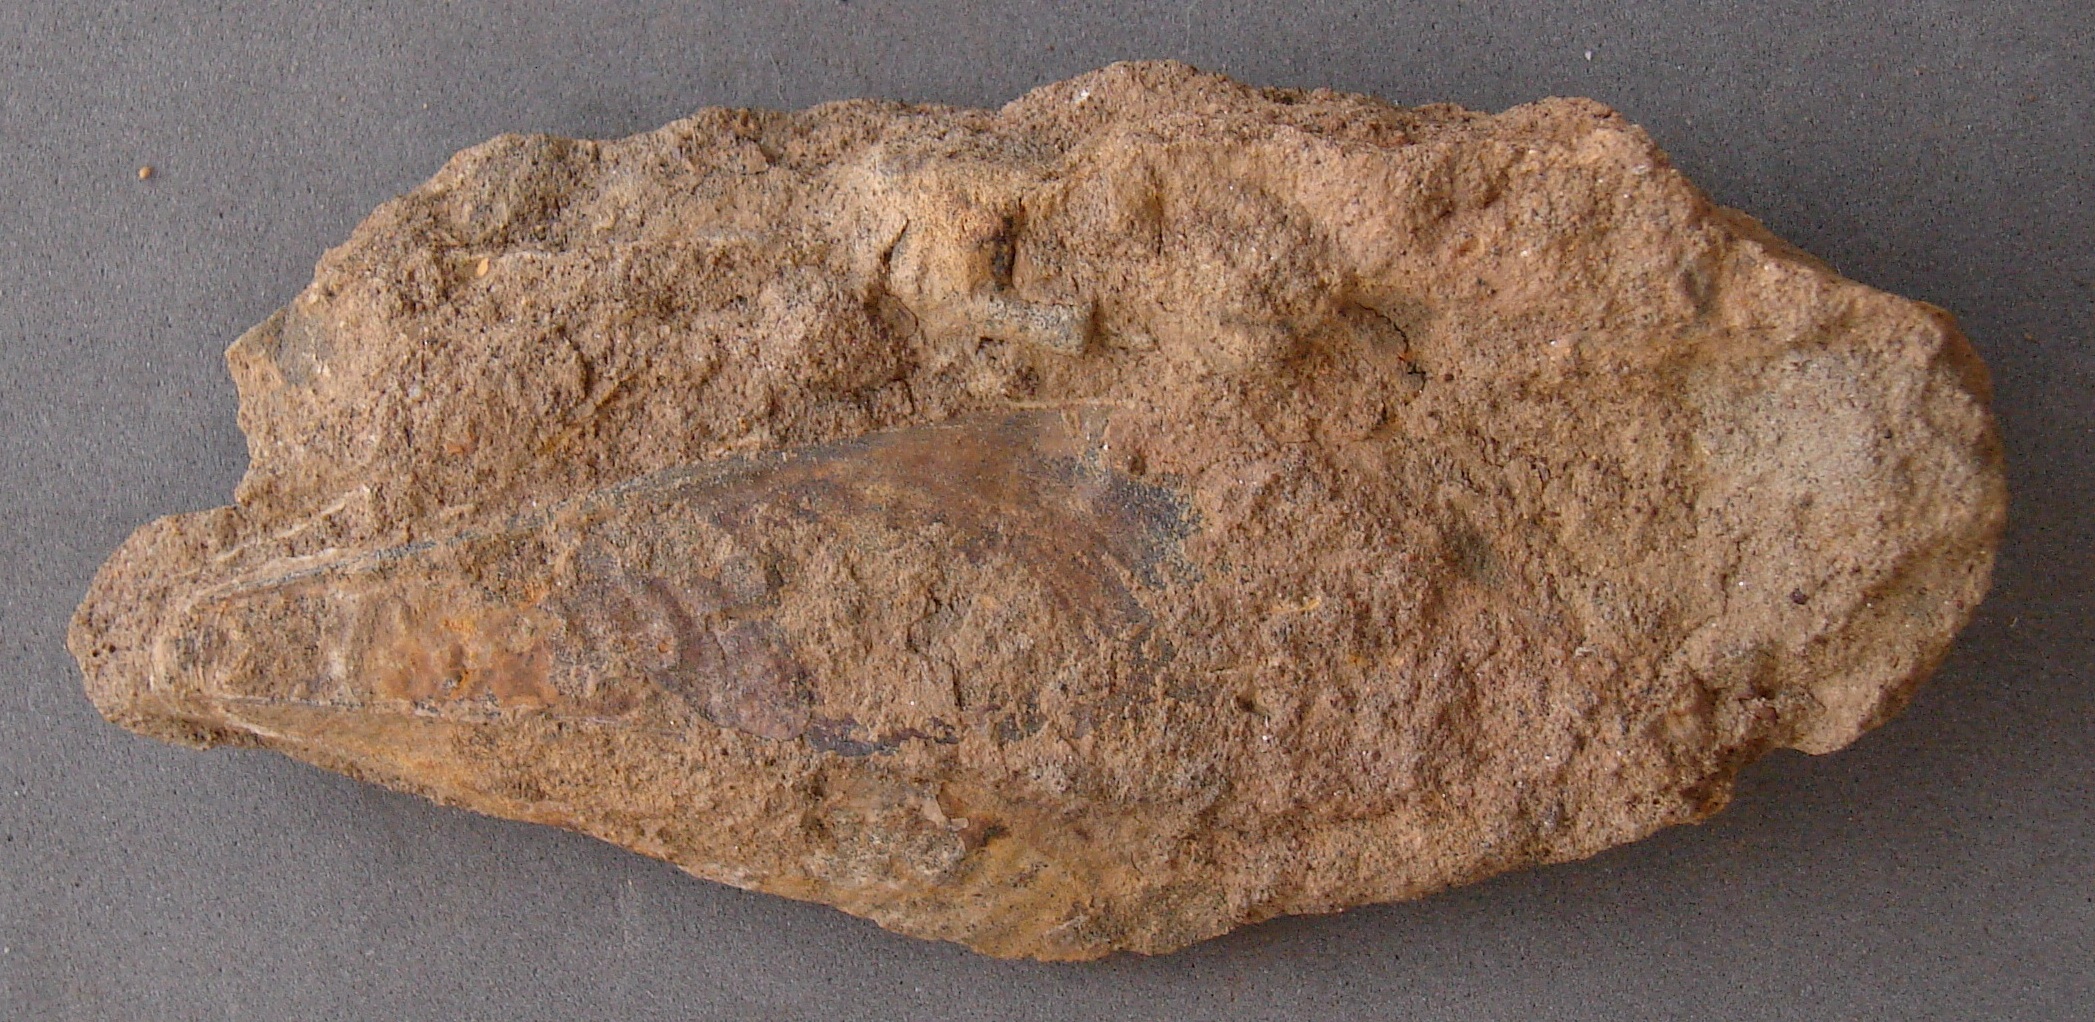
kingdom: Animalia
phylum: Mollusca
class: Bivalvia
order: Ostreida
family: Pinnidae
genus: Pinna
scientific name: Pinna
